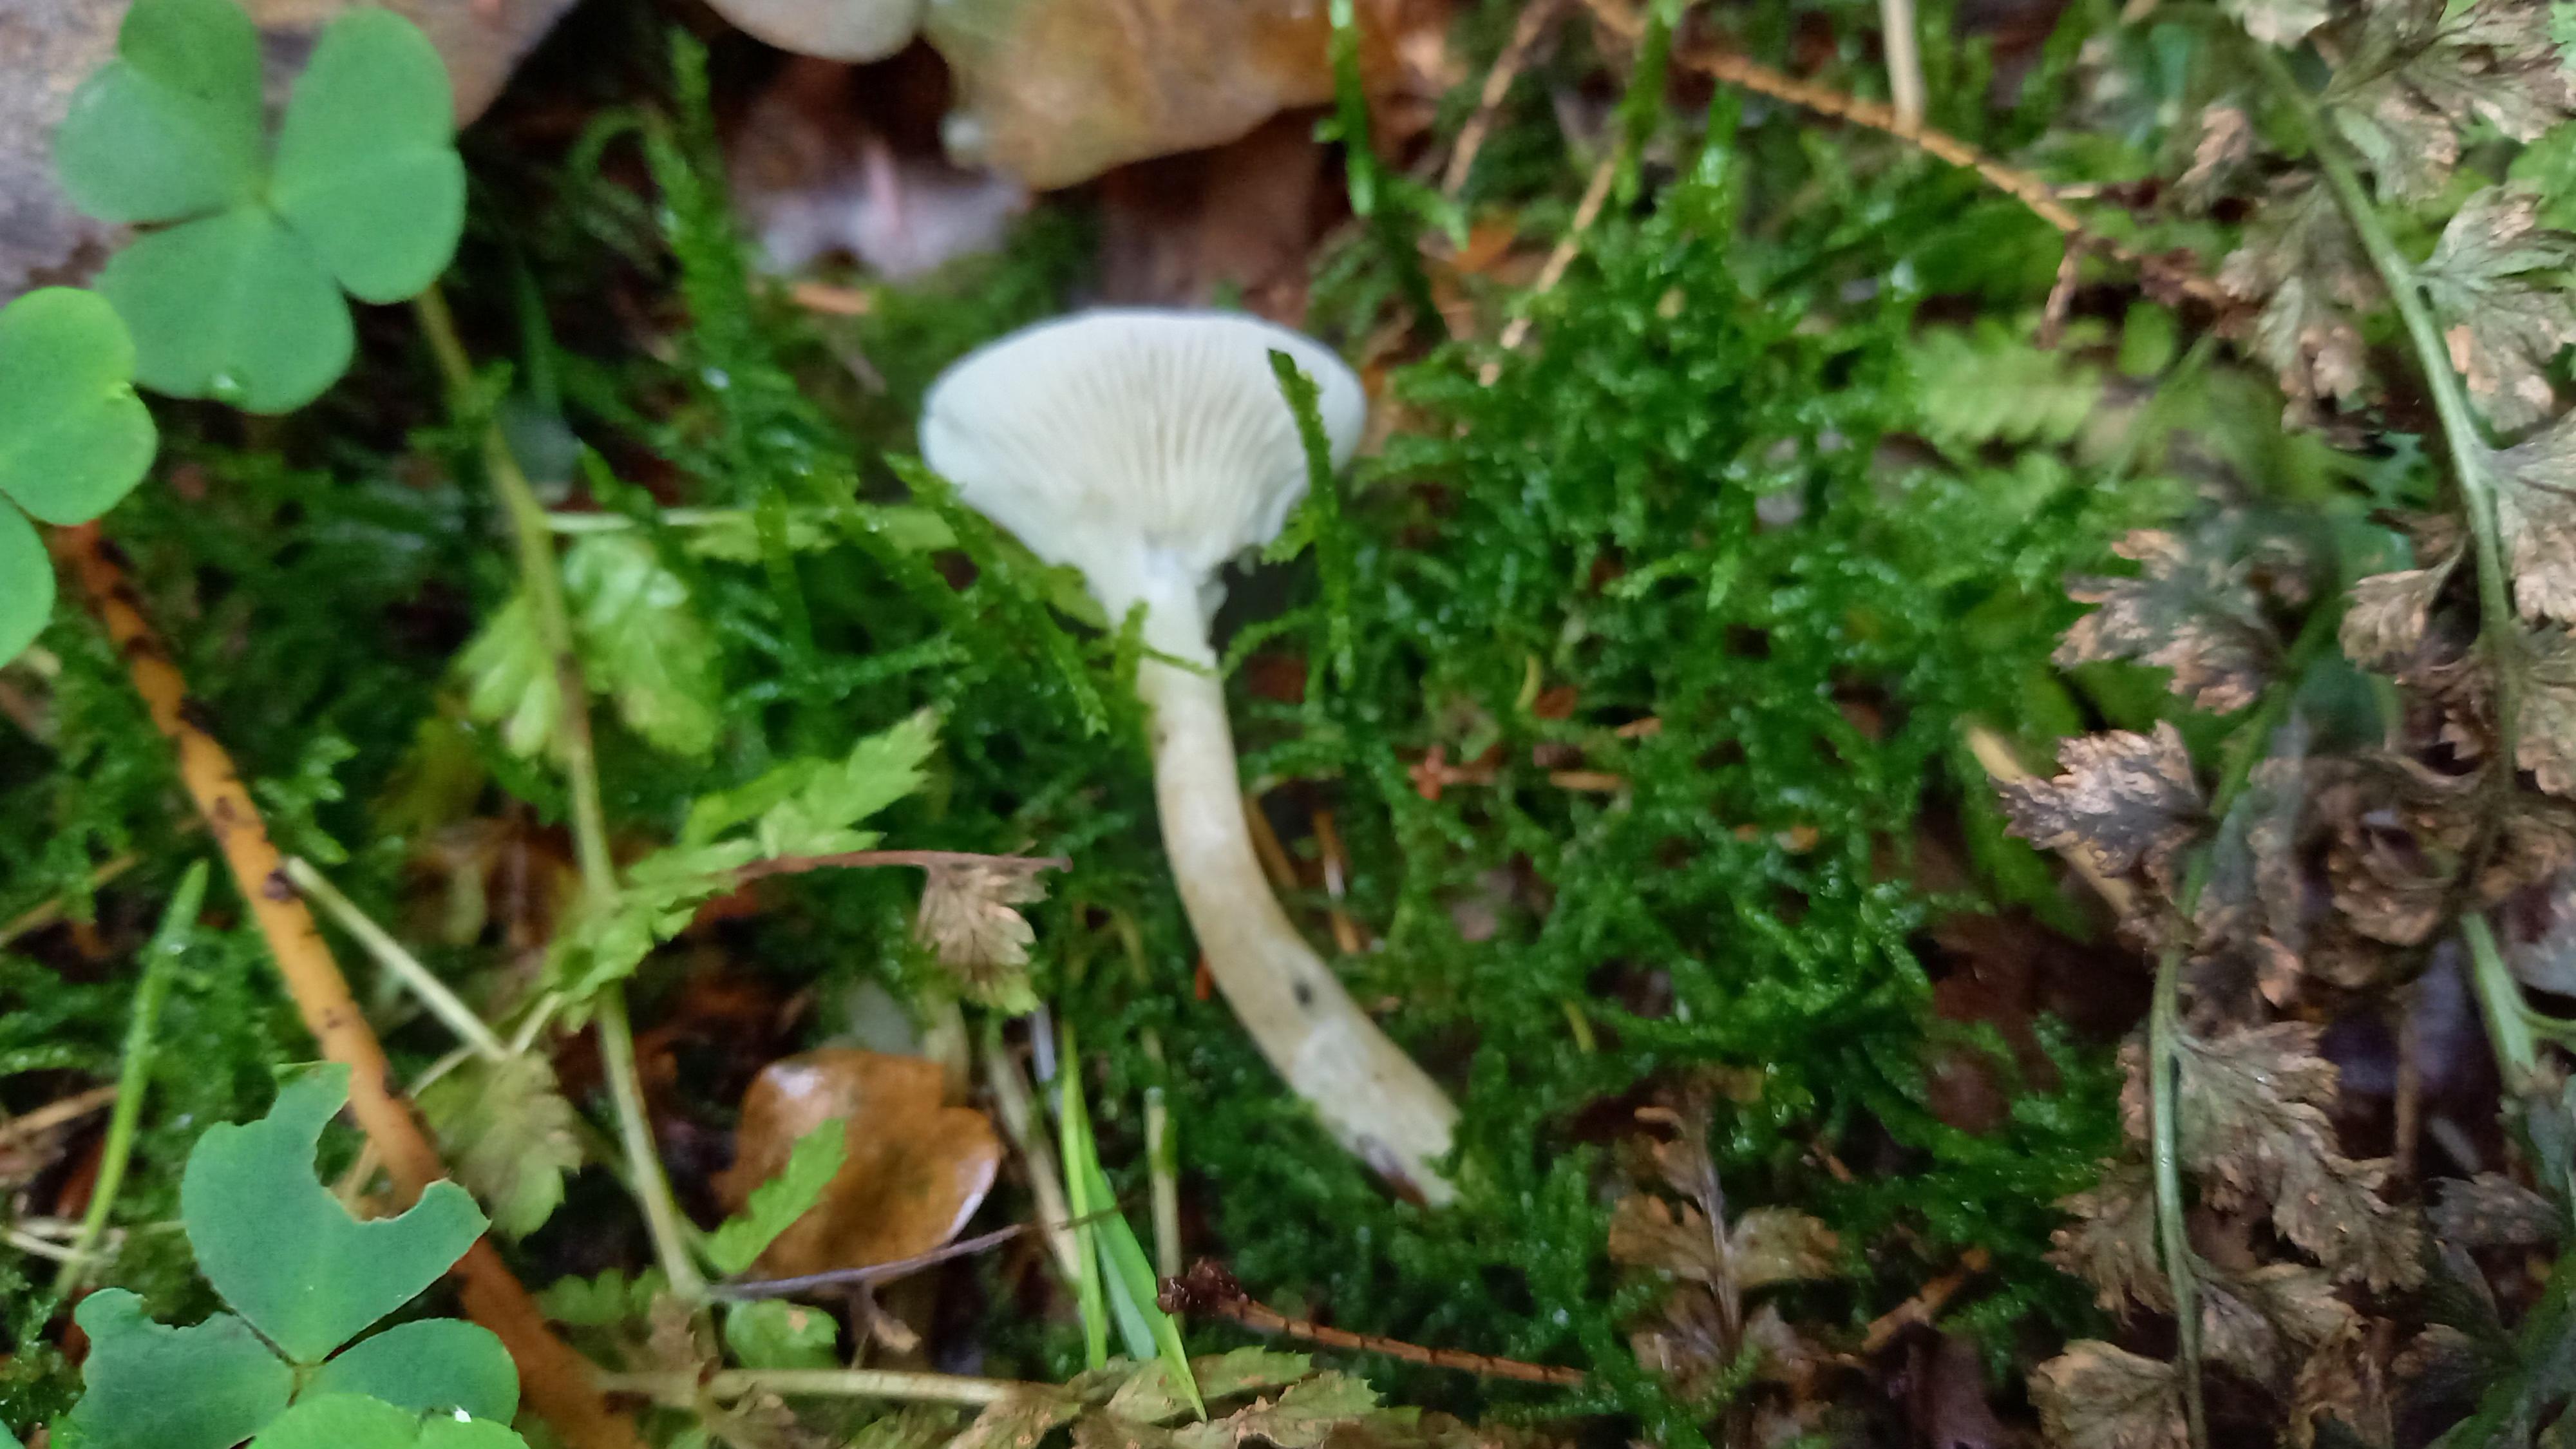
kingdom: Fungi
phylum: Basidiomycota
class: Agaricomycetes
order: Agaricales
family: Hygrophoraceae
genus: Ampulloclitocybe
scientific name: Ampulloclitocybe clavipes
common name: køllefod
